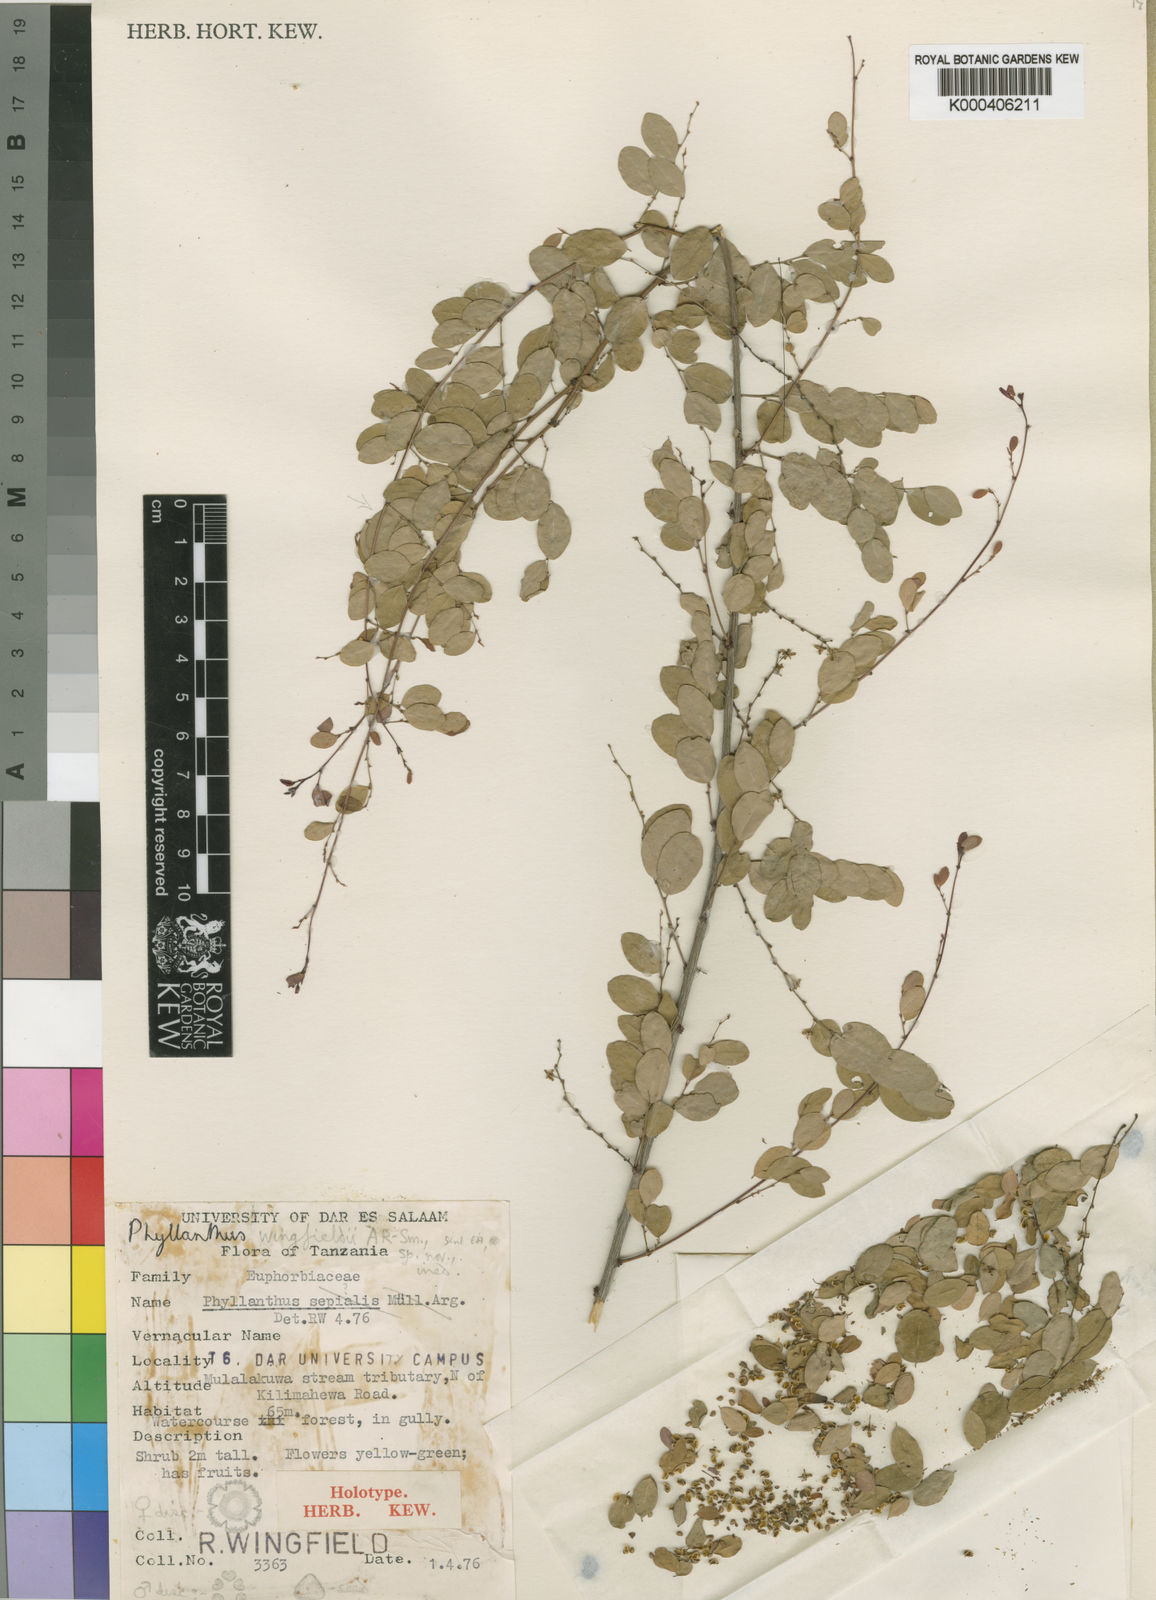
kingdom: Plantae
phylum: Tracheophyta
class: Magnoliopsida
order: Malpighiales
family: Phyllanthaceae
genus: Phyllanthus
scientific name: Phyllanthus wingfieldii
